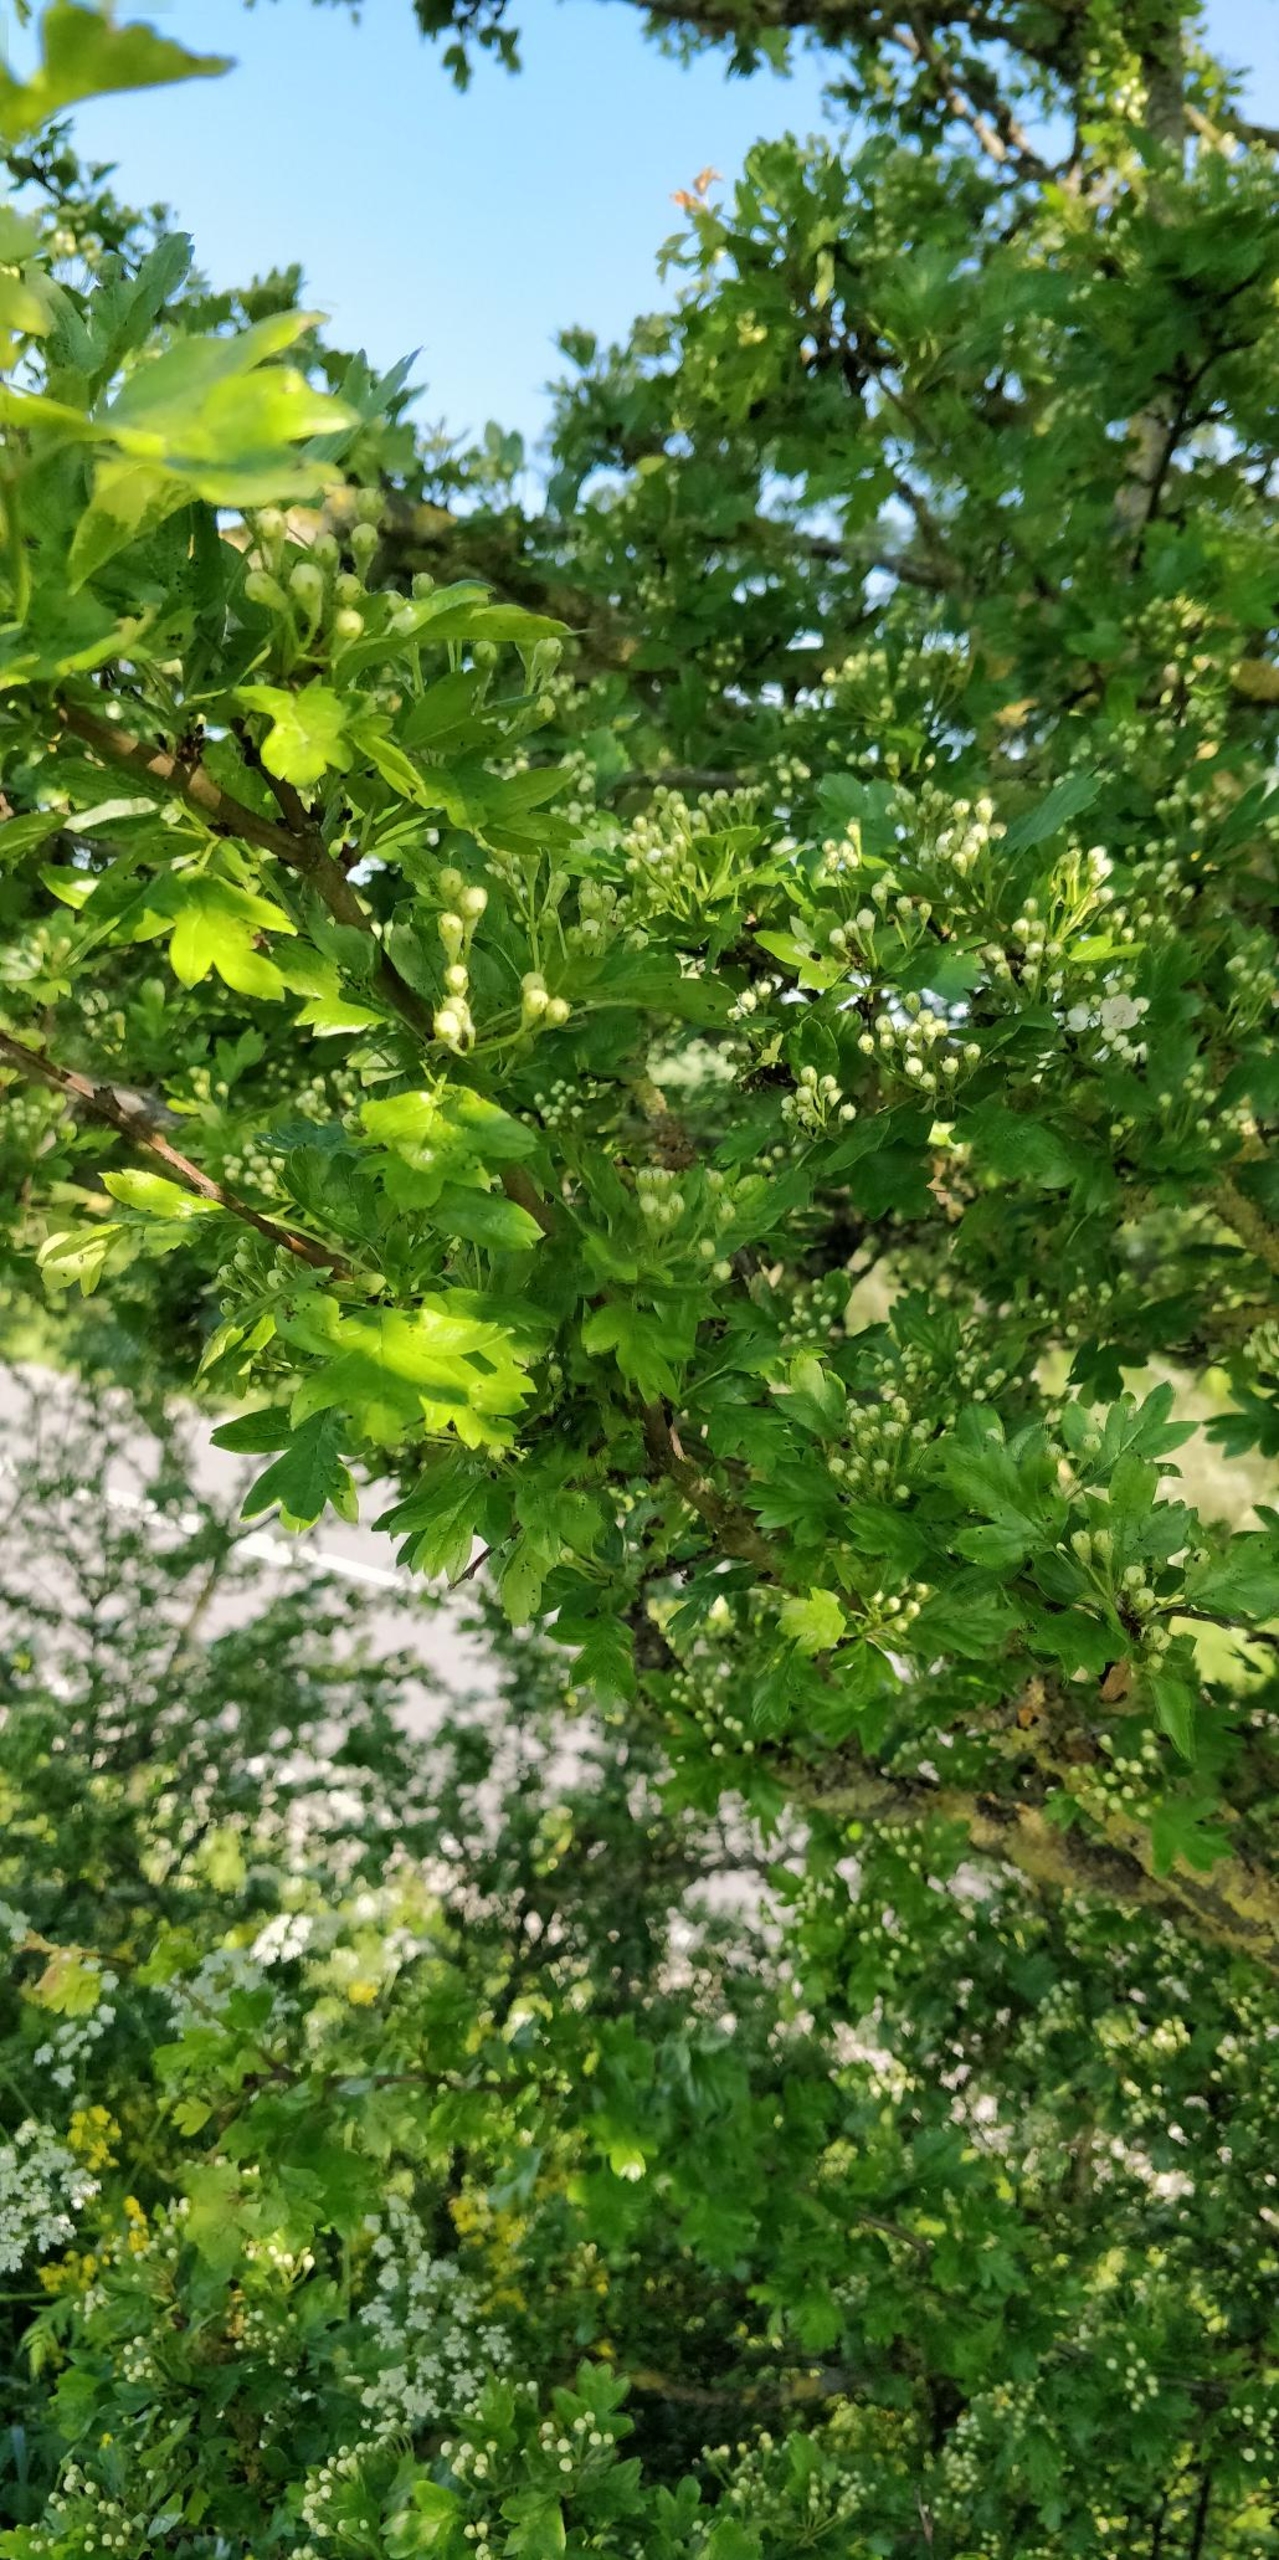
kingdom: Plantae
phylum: Tracheophyta
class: Magnoliopsida
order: Rosales
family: Rosaceae
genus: Crataegus
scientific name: Crataegus monogyna
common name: Engriflet hvidtjørn
